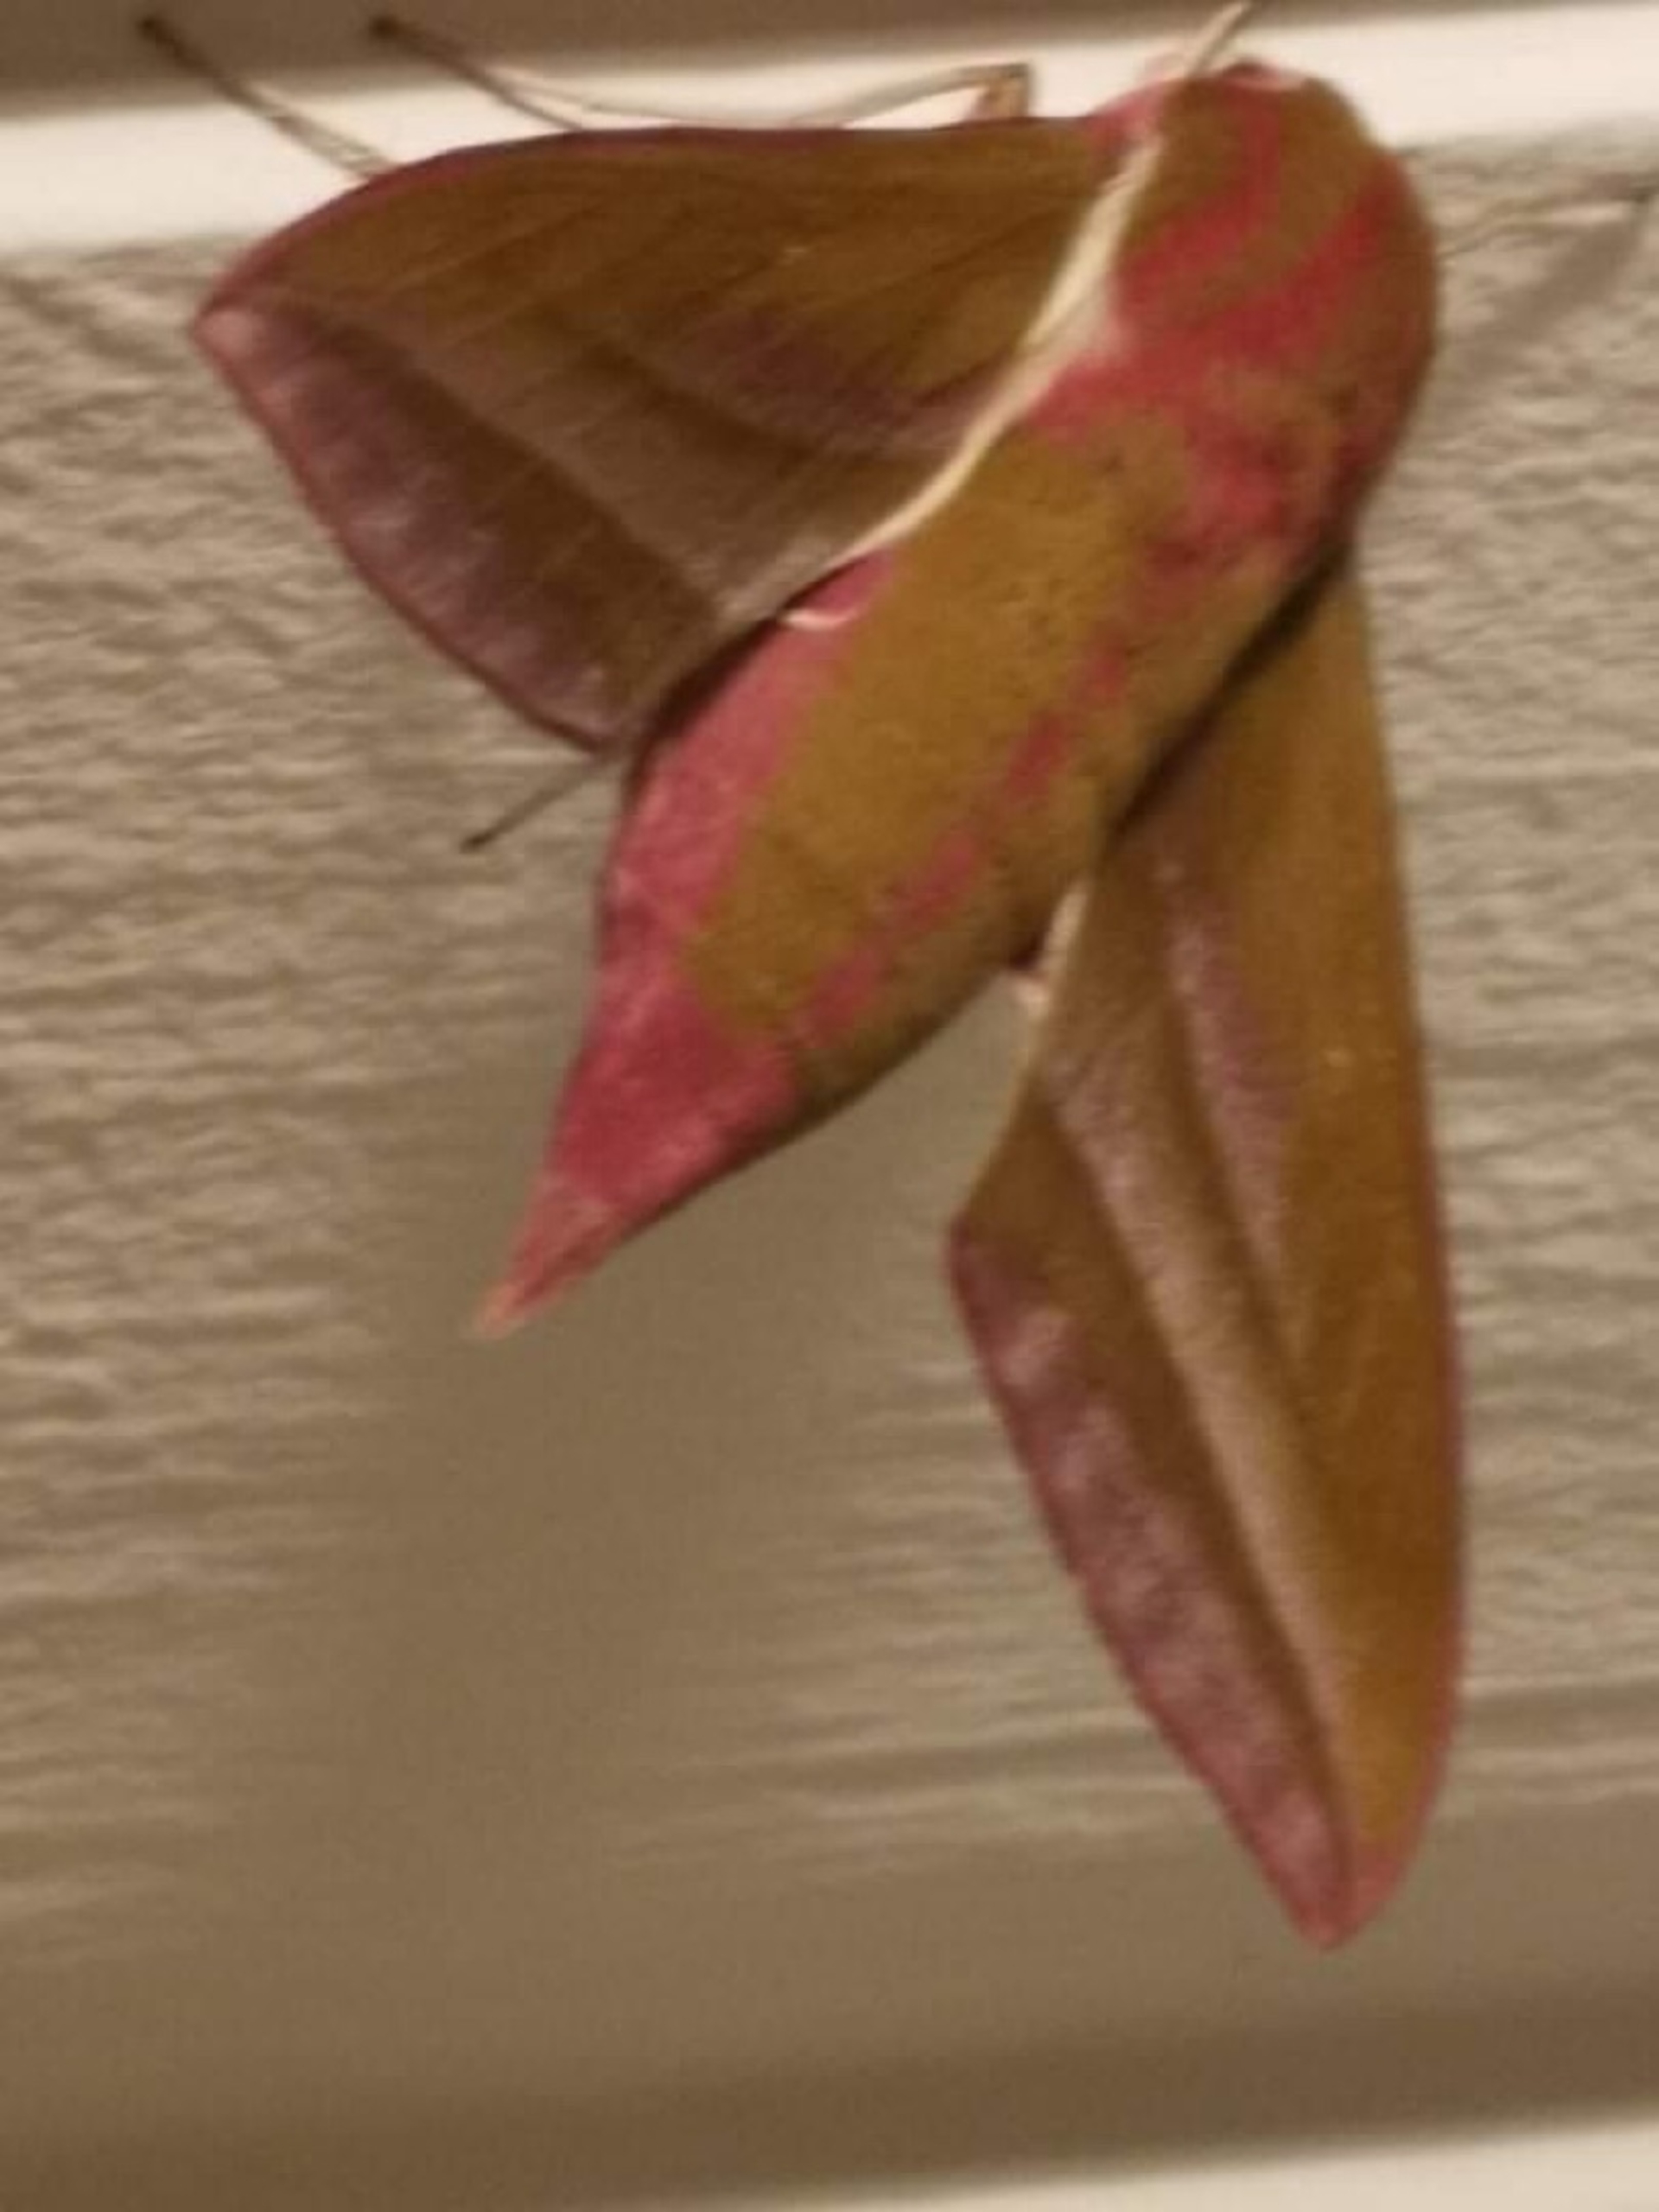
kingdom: Animalia
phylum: Arthropoda
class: Insecta
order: Lepidoptera
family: Sphingidae
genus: Deilephila
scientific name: Deilephila elpenor
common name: Dueurtsværmer
